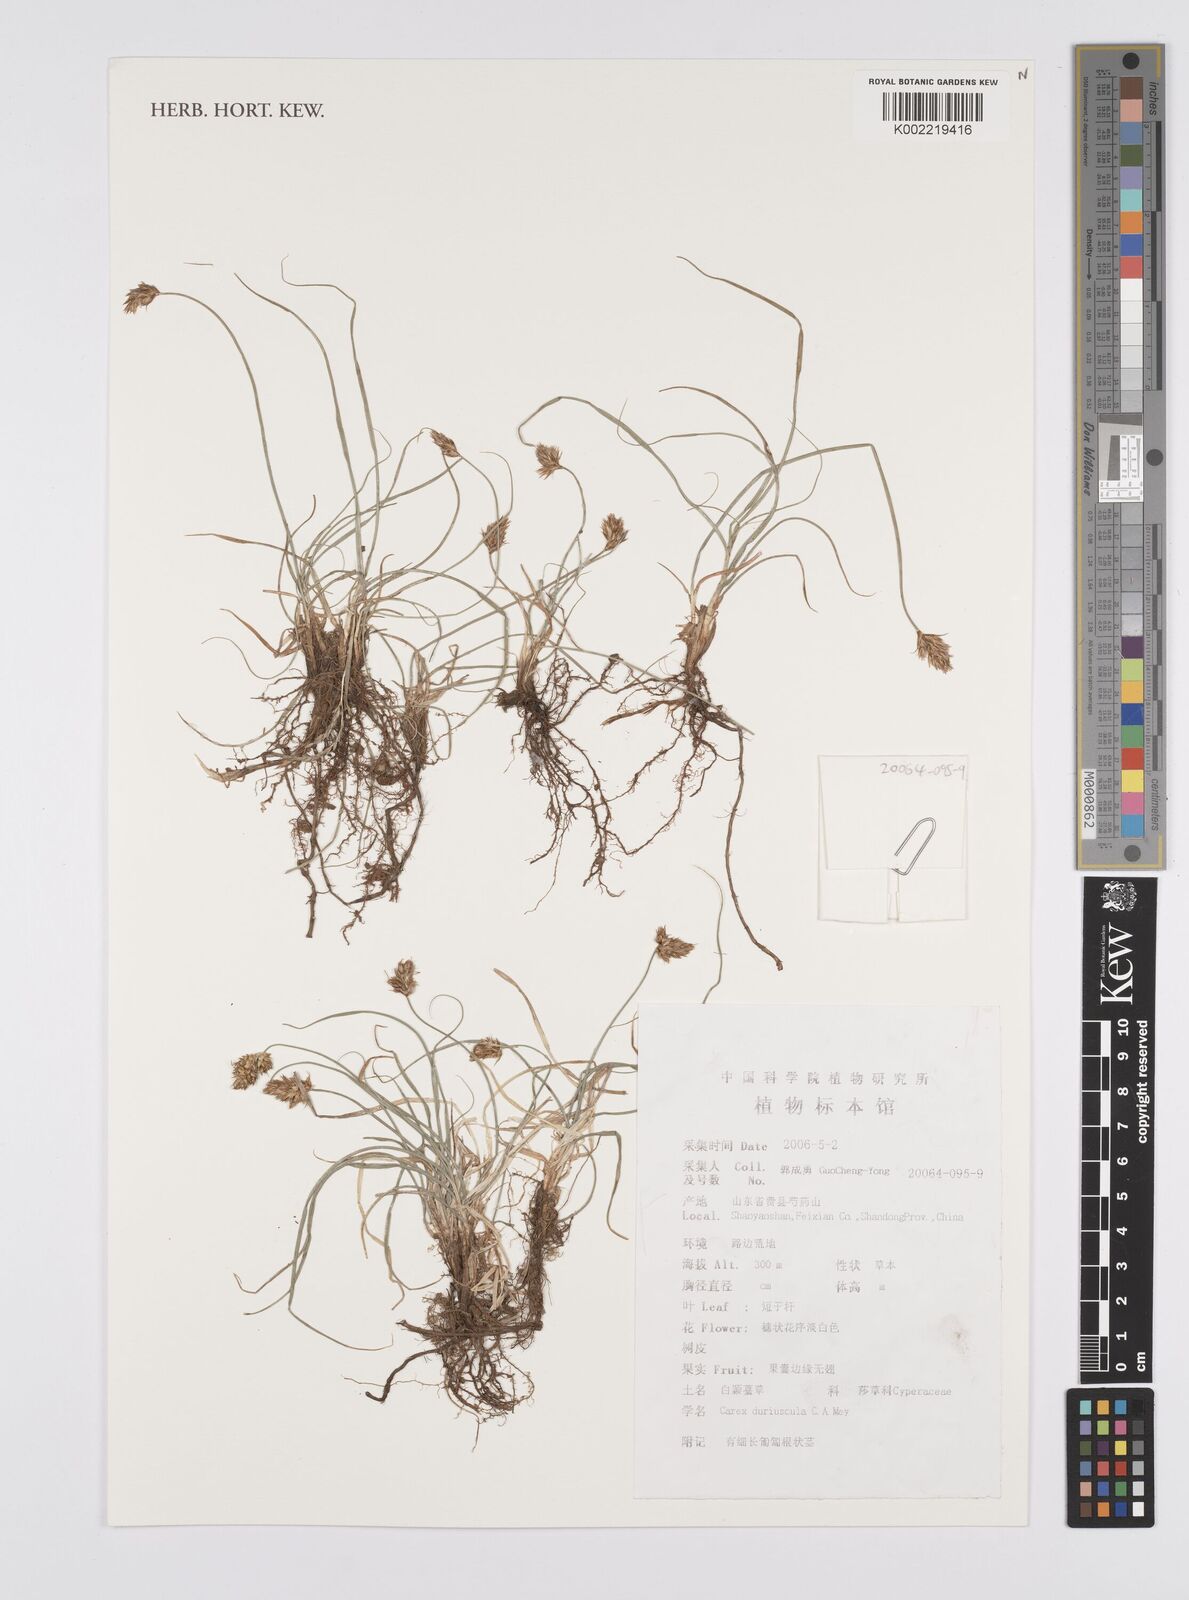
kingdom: Plantae
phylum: Tracheophyta
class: Liliopsida
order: Poales
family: Cyperaceae
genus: Carex
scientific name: Carex duriuscula
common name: Involute-leaved sedge
